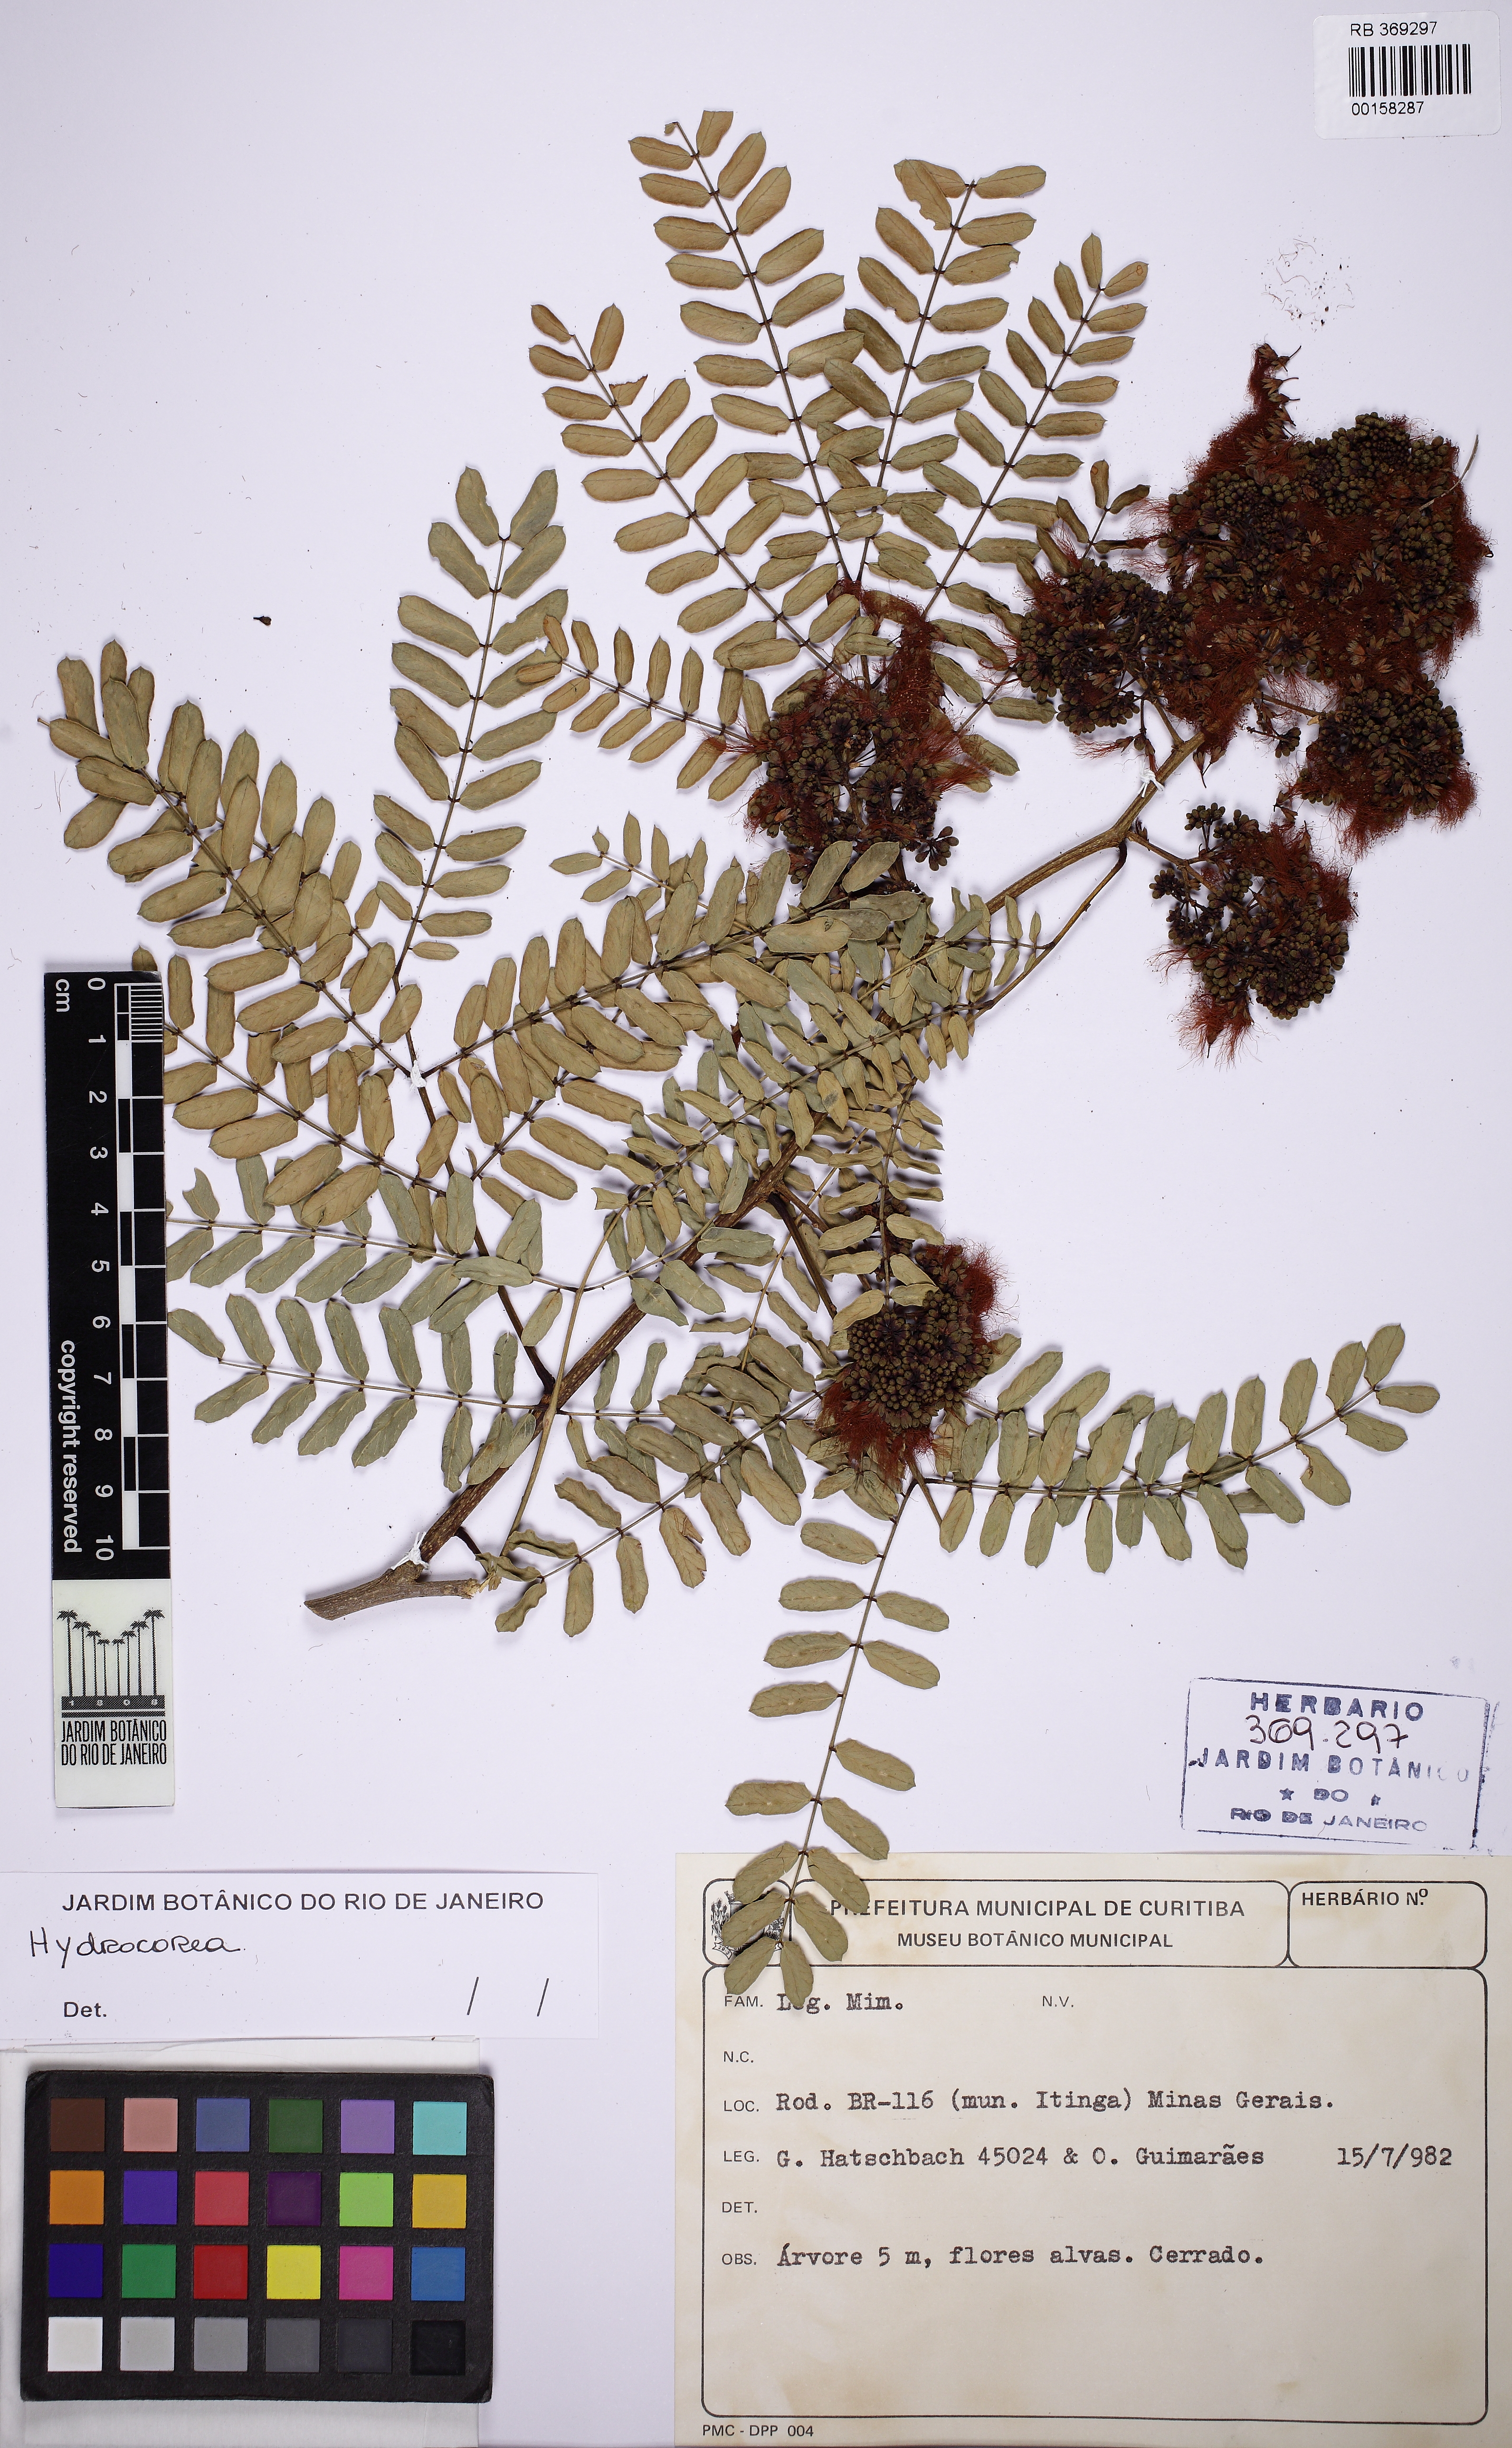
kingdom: Plantae
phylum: Tracheophyta
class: Magnoliopsida
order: Fabales
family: Fabaceae
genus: Blanchetiodendron
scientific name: Blanchetiodendron blanchetii
